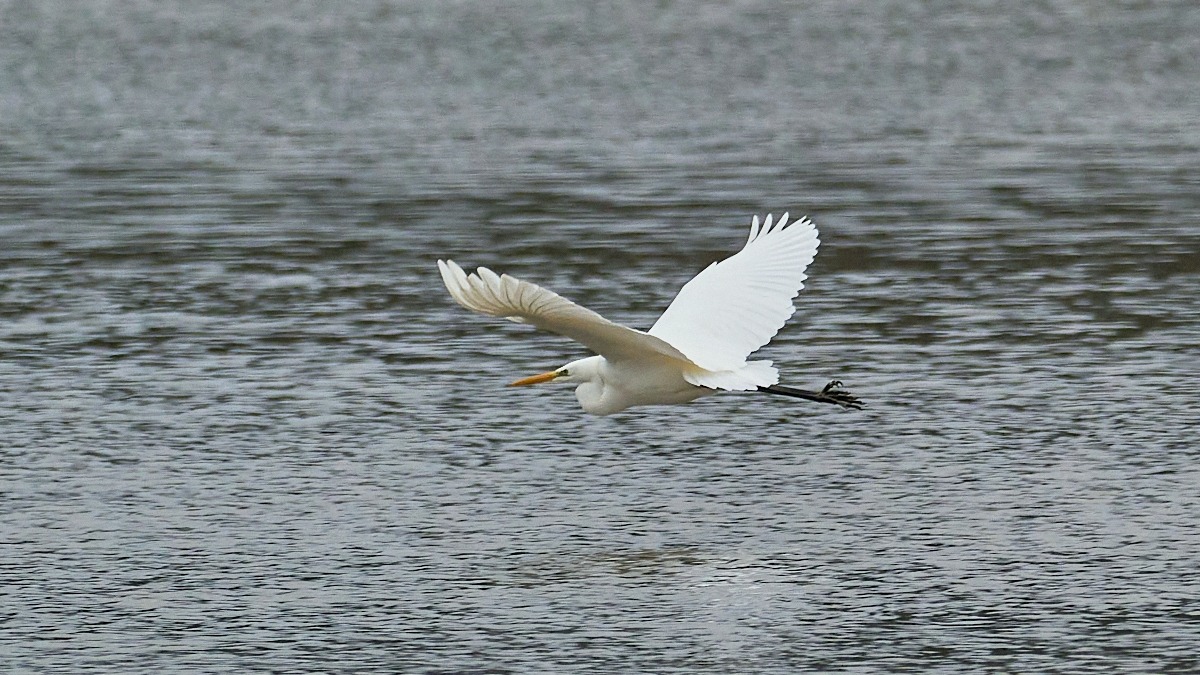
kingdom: Animalia
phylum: Chordata
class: Aves
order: Pelecaniformes
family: Ardeidae
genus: Ardea
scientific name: Ardea alba
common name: Sølvhejre
